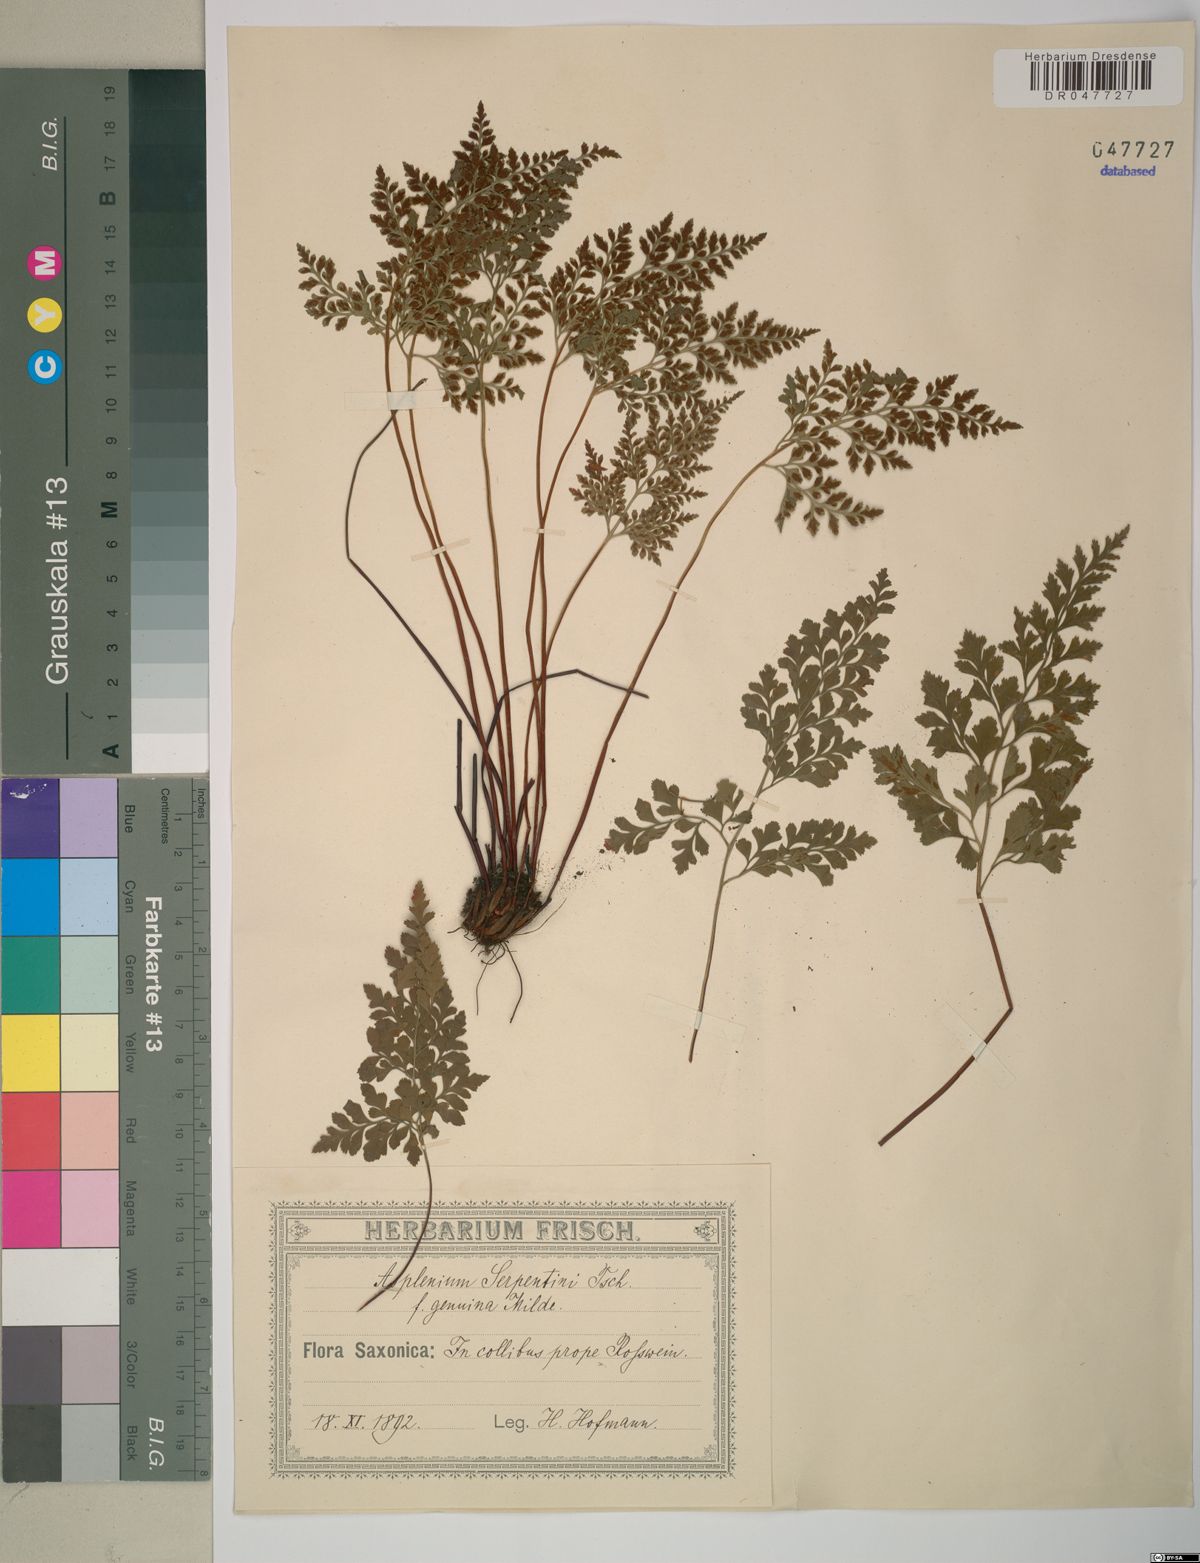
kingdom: Plantae
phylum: Tracheophyta
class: Polypodiopsida
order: Polypodiales
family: Aspleniaceae
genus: Asplenium
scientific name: Asplenium cuneifolium
